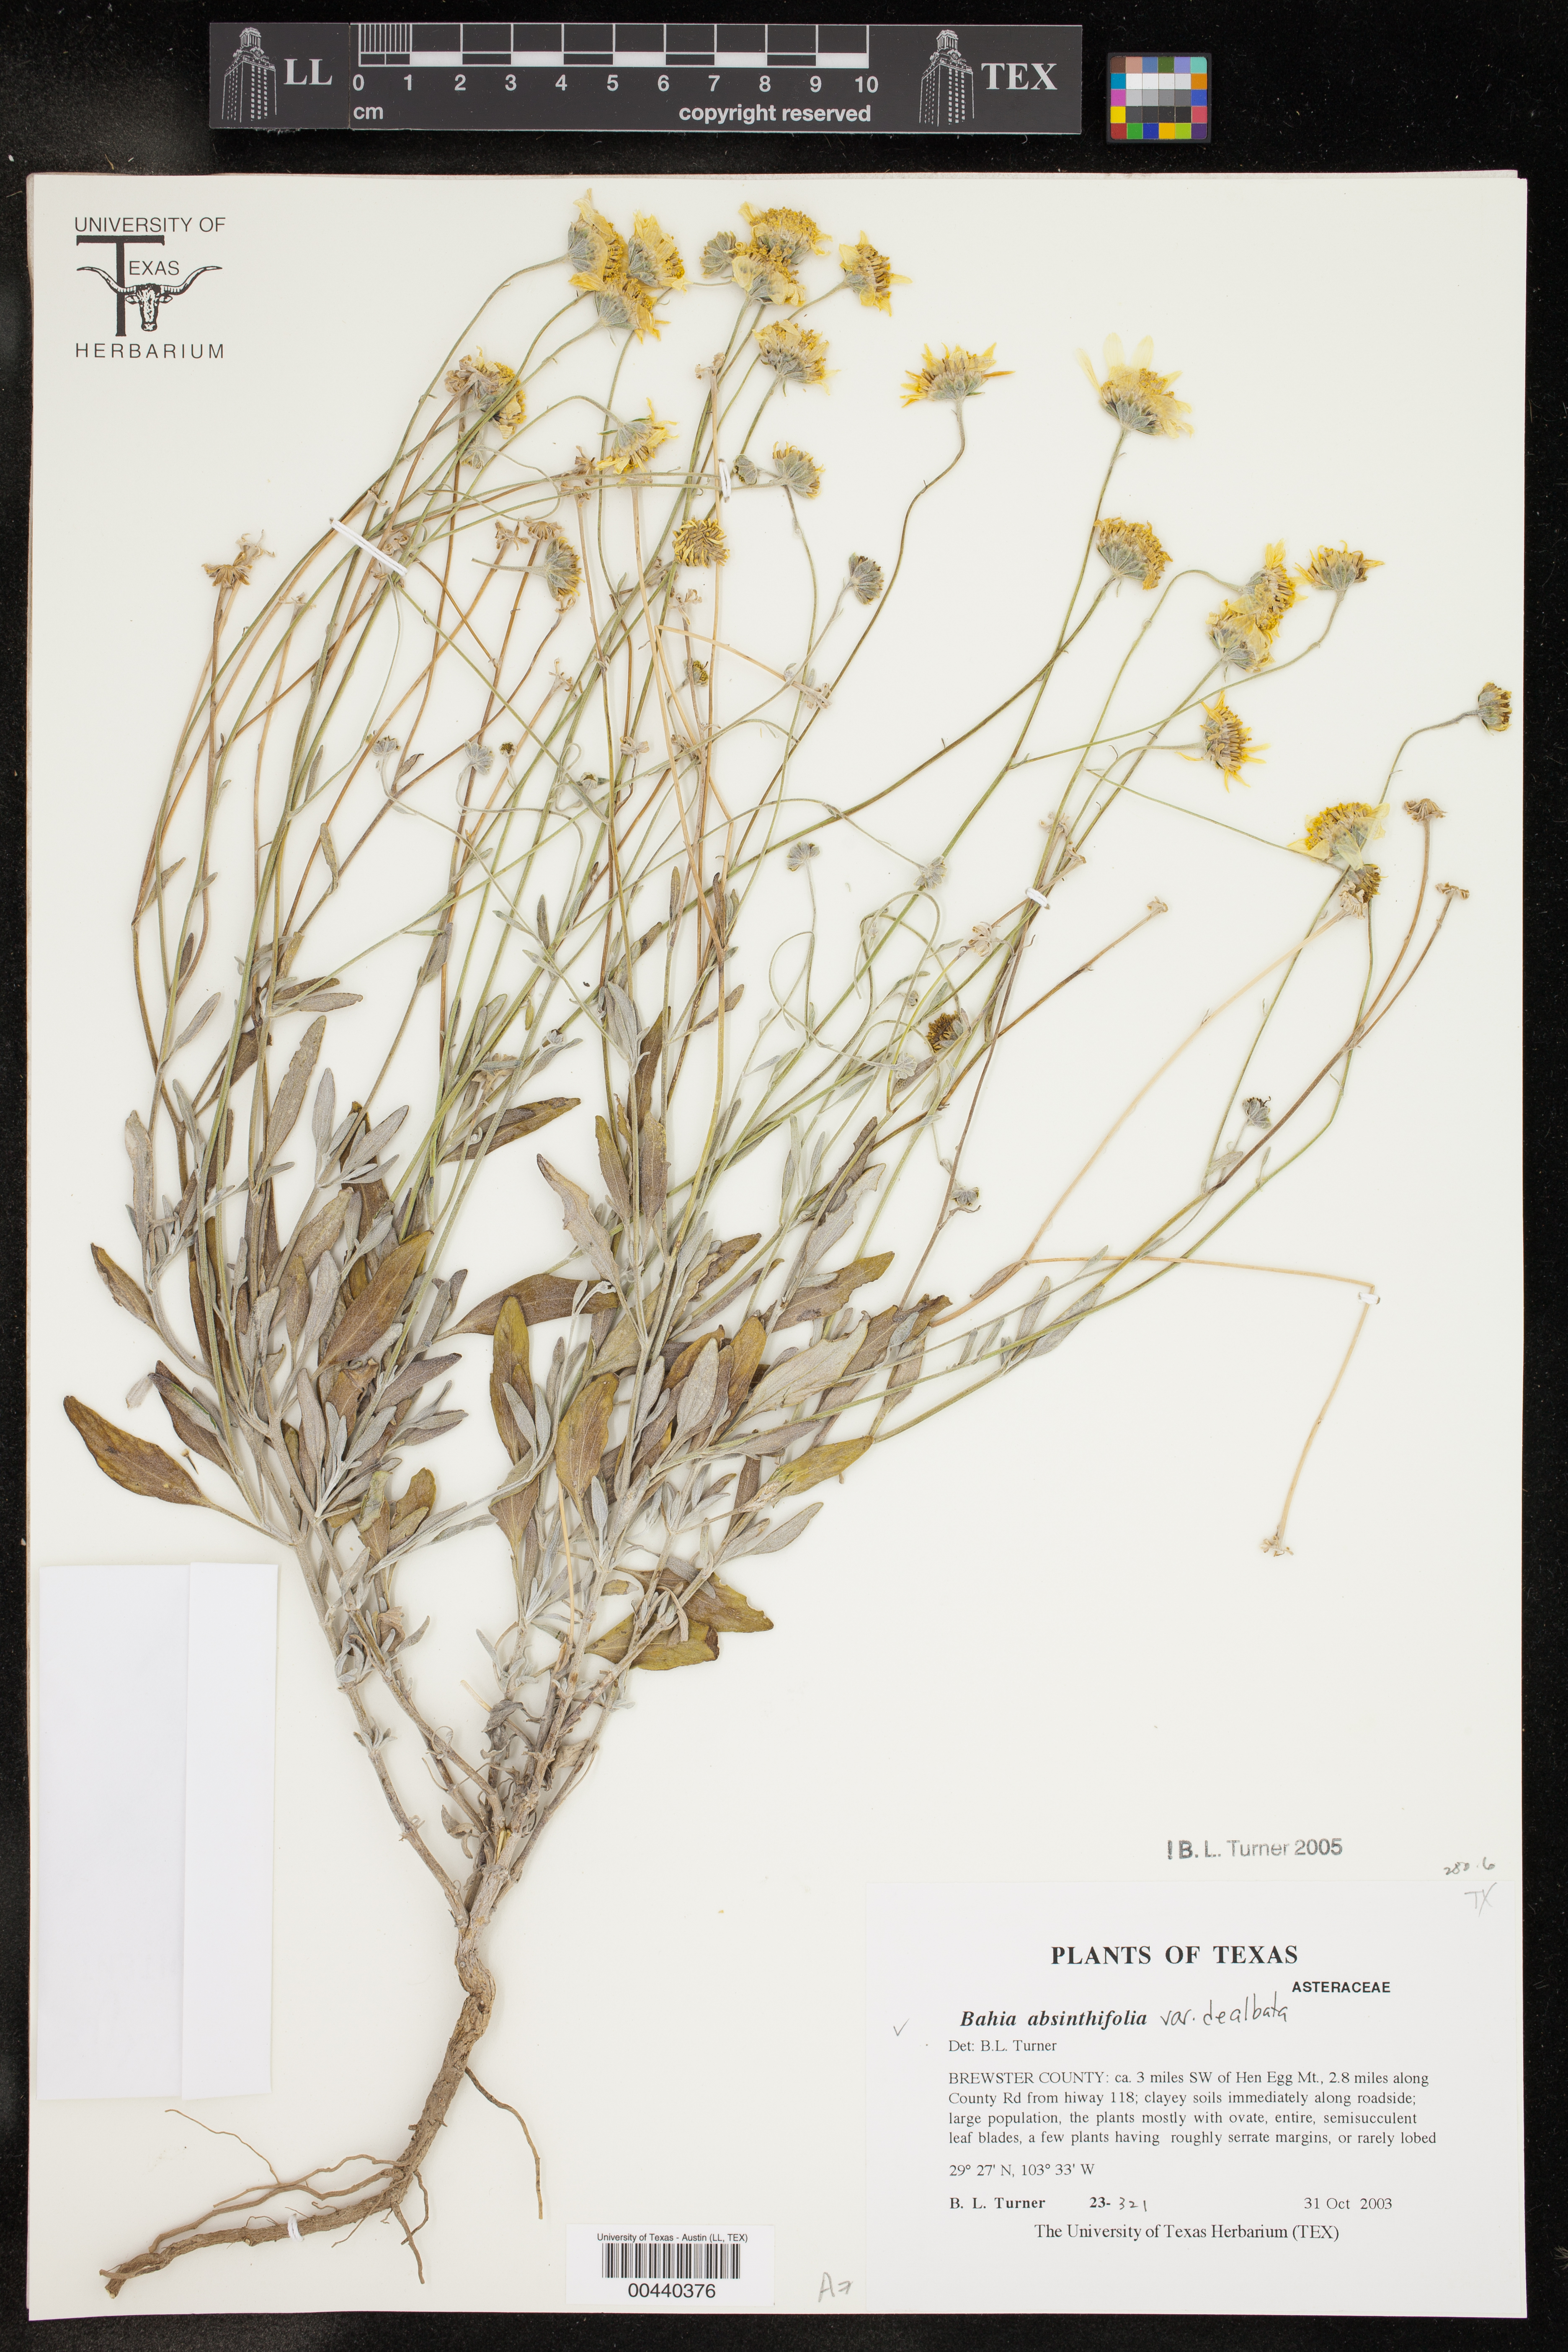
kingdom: Plantae
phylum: Tracheophyta
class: Magnoliopsida
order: Asterales
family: Asteraceae
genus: Picradeniopsis
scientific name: Picradeniopsis absinthifolia
